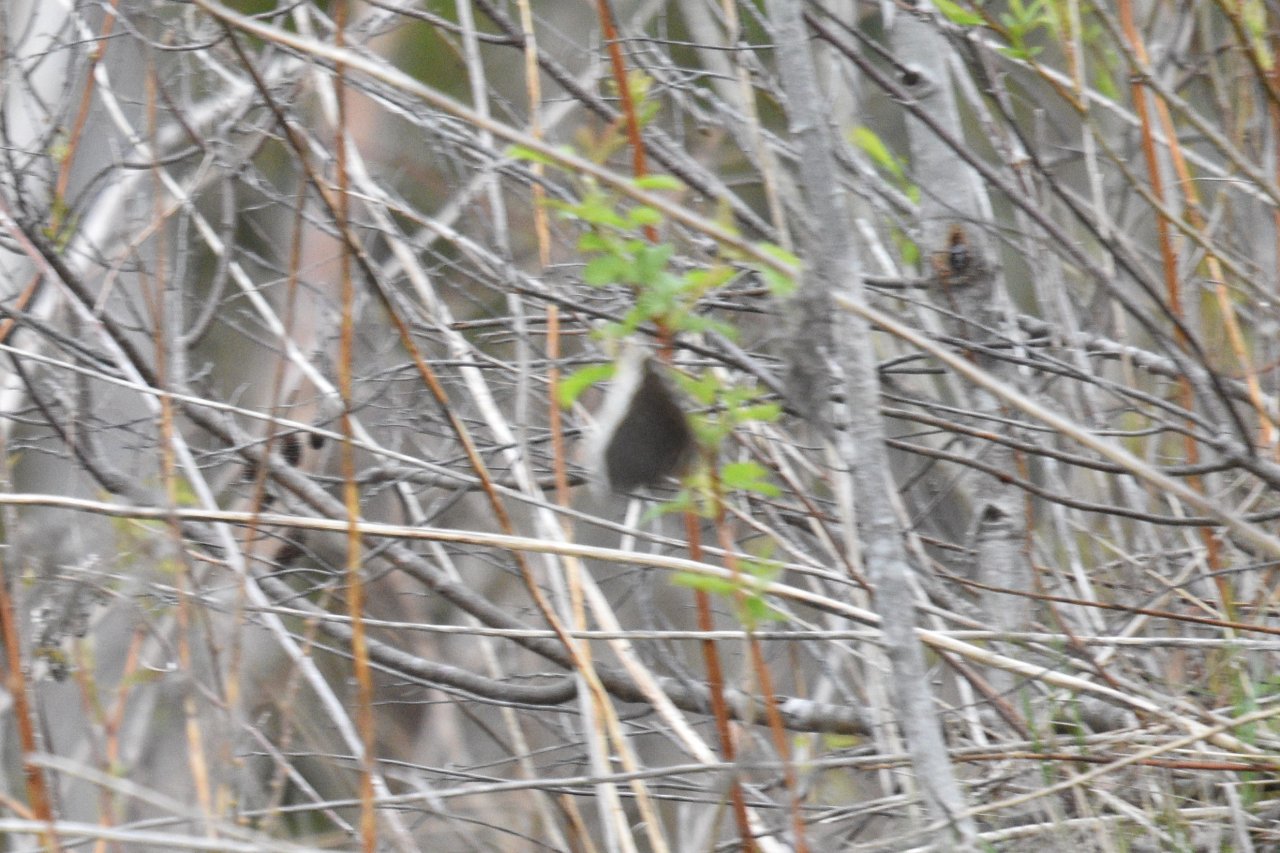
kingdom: Animalia
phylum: Arthropoda
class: Insecta
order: Lepidoptera
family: Nymphalidae
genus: Nymphalis
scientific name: Nymphalis antiopa
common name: Mourning Cloak
